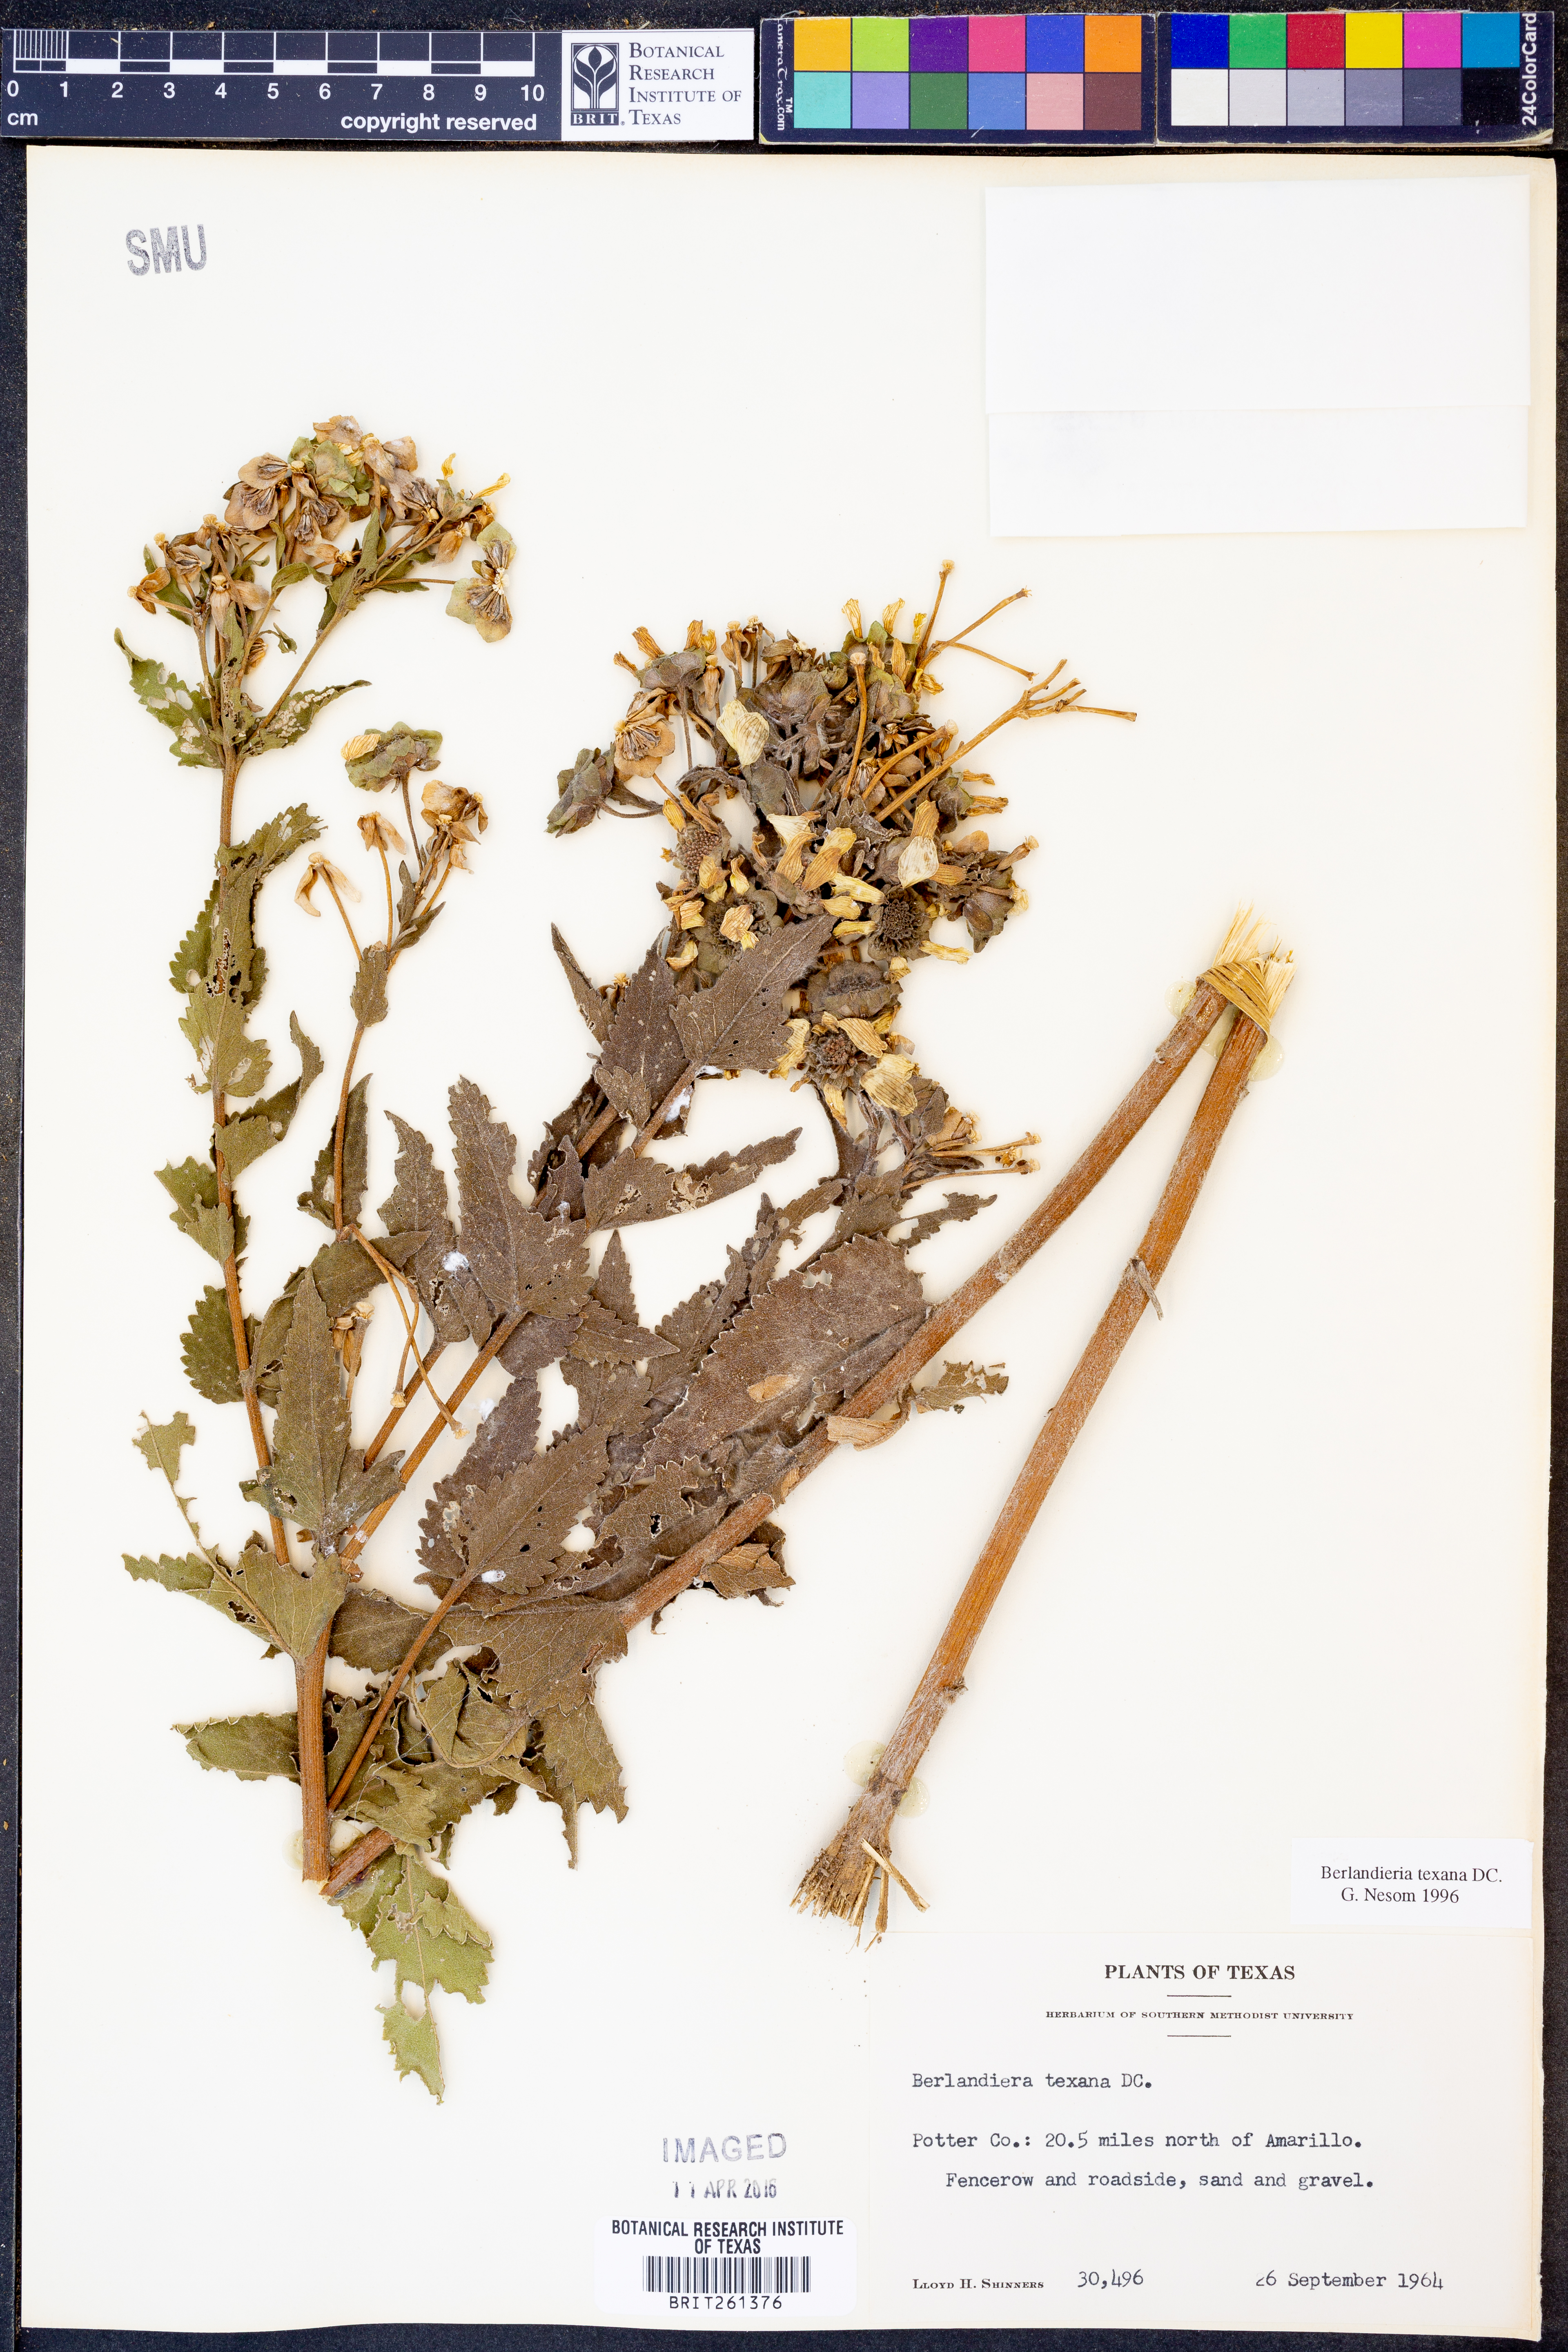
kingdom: Plantae
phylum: Tracheophyta
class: Magnoliopsida
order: Asterales
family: Asteraceae
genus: Berlandiera
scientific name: Berlandiera texana
